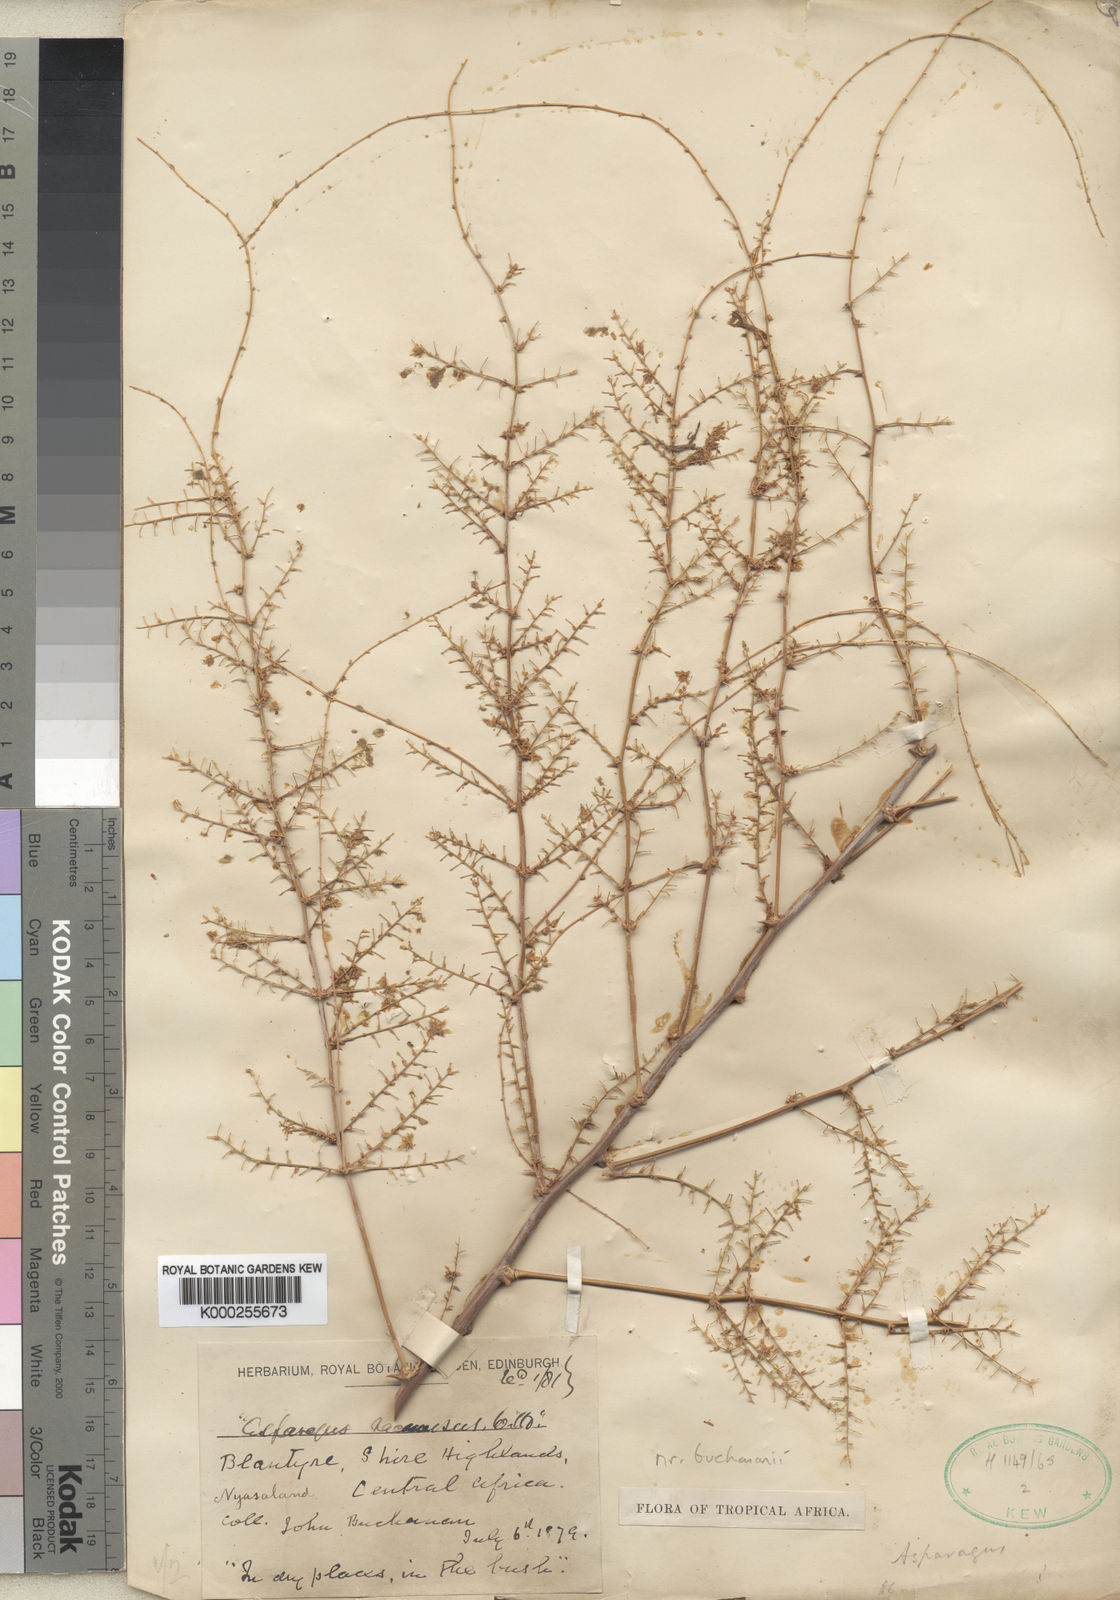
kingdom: Plantae
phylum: Tracheophyta
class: Liliopsida
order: Asparagales
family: Asparagaceae
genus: Asparagus
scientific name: Asparagus buchananii
